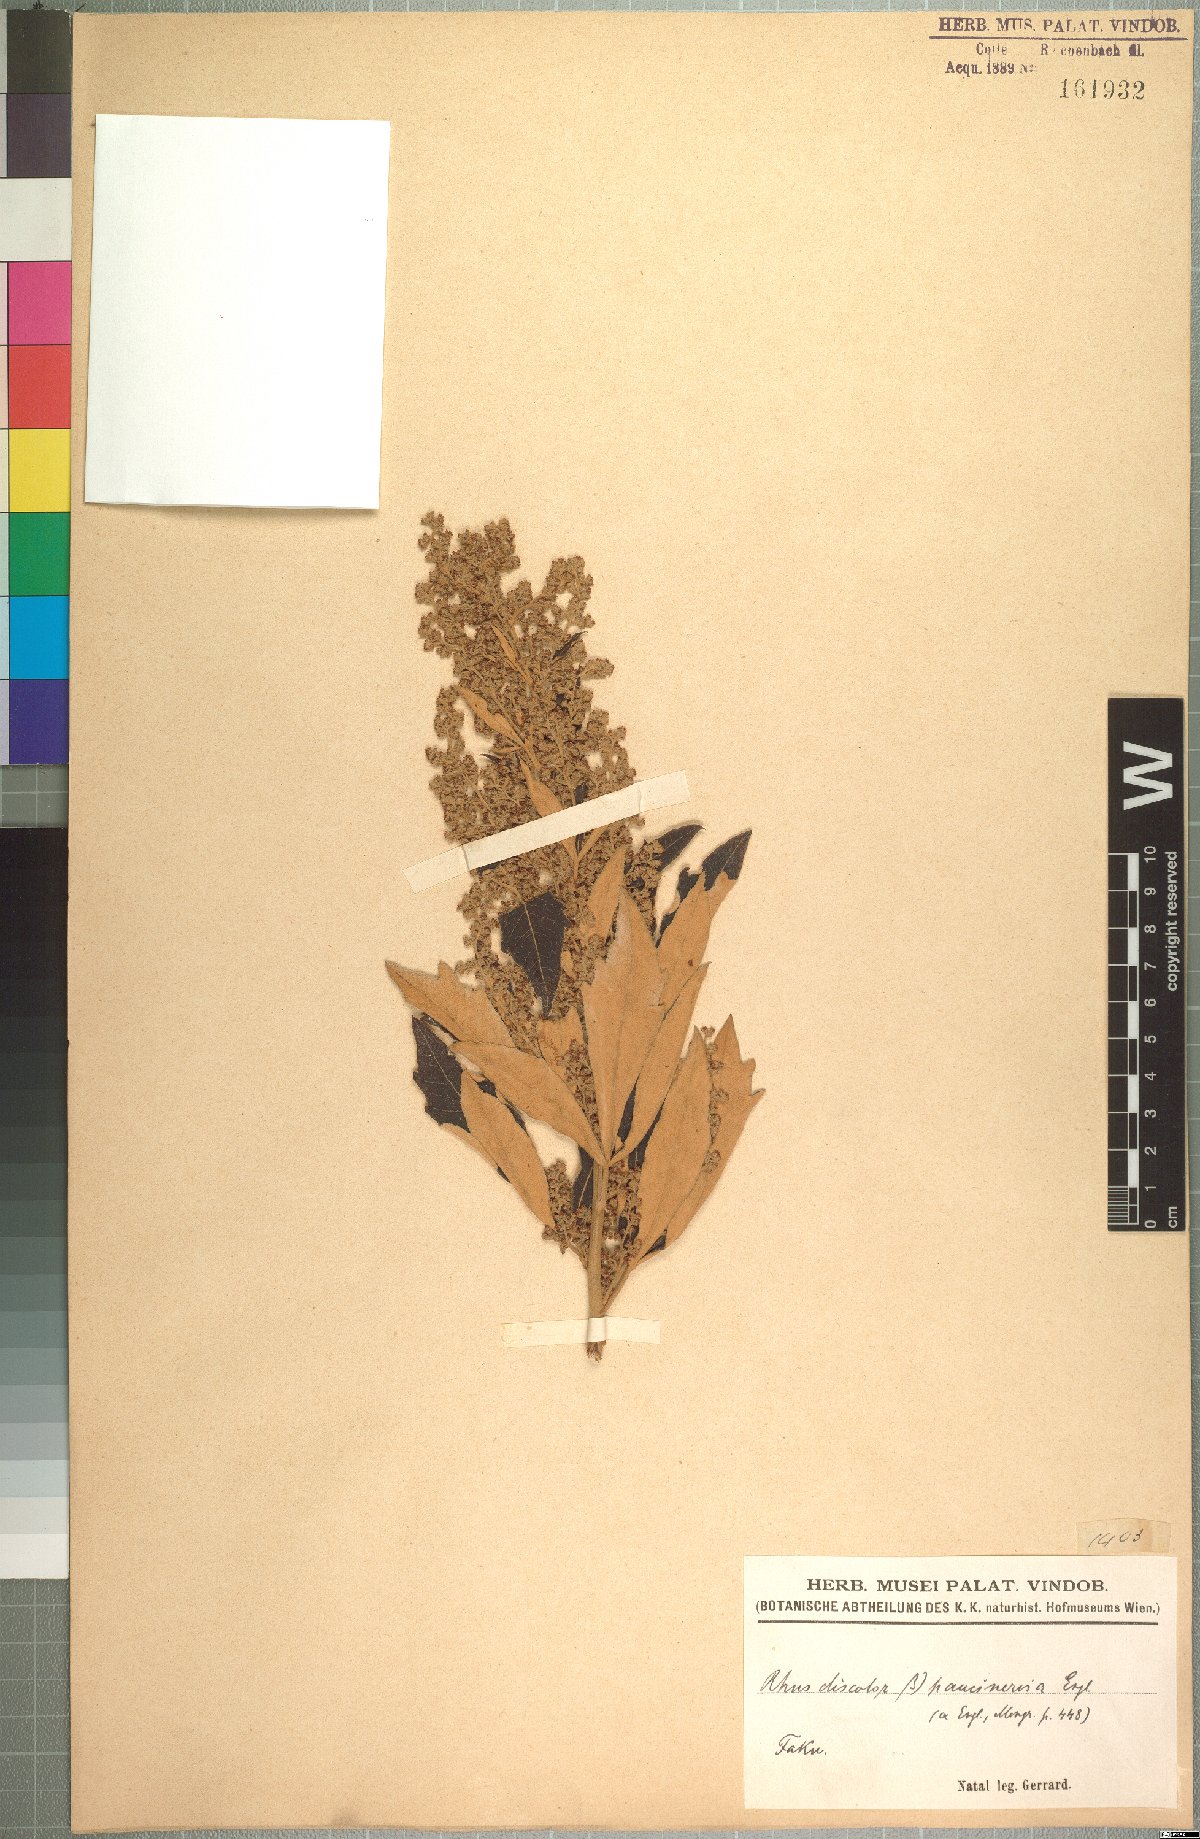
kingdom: Plantae
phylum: Tracheophyta
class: Magnoliopsida
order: Sapindales
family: Anacardiaceae
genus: Searsia
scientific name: Searsia
